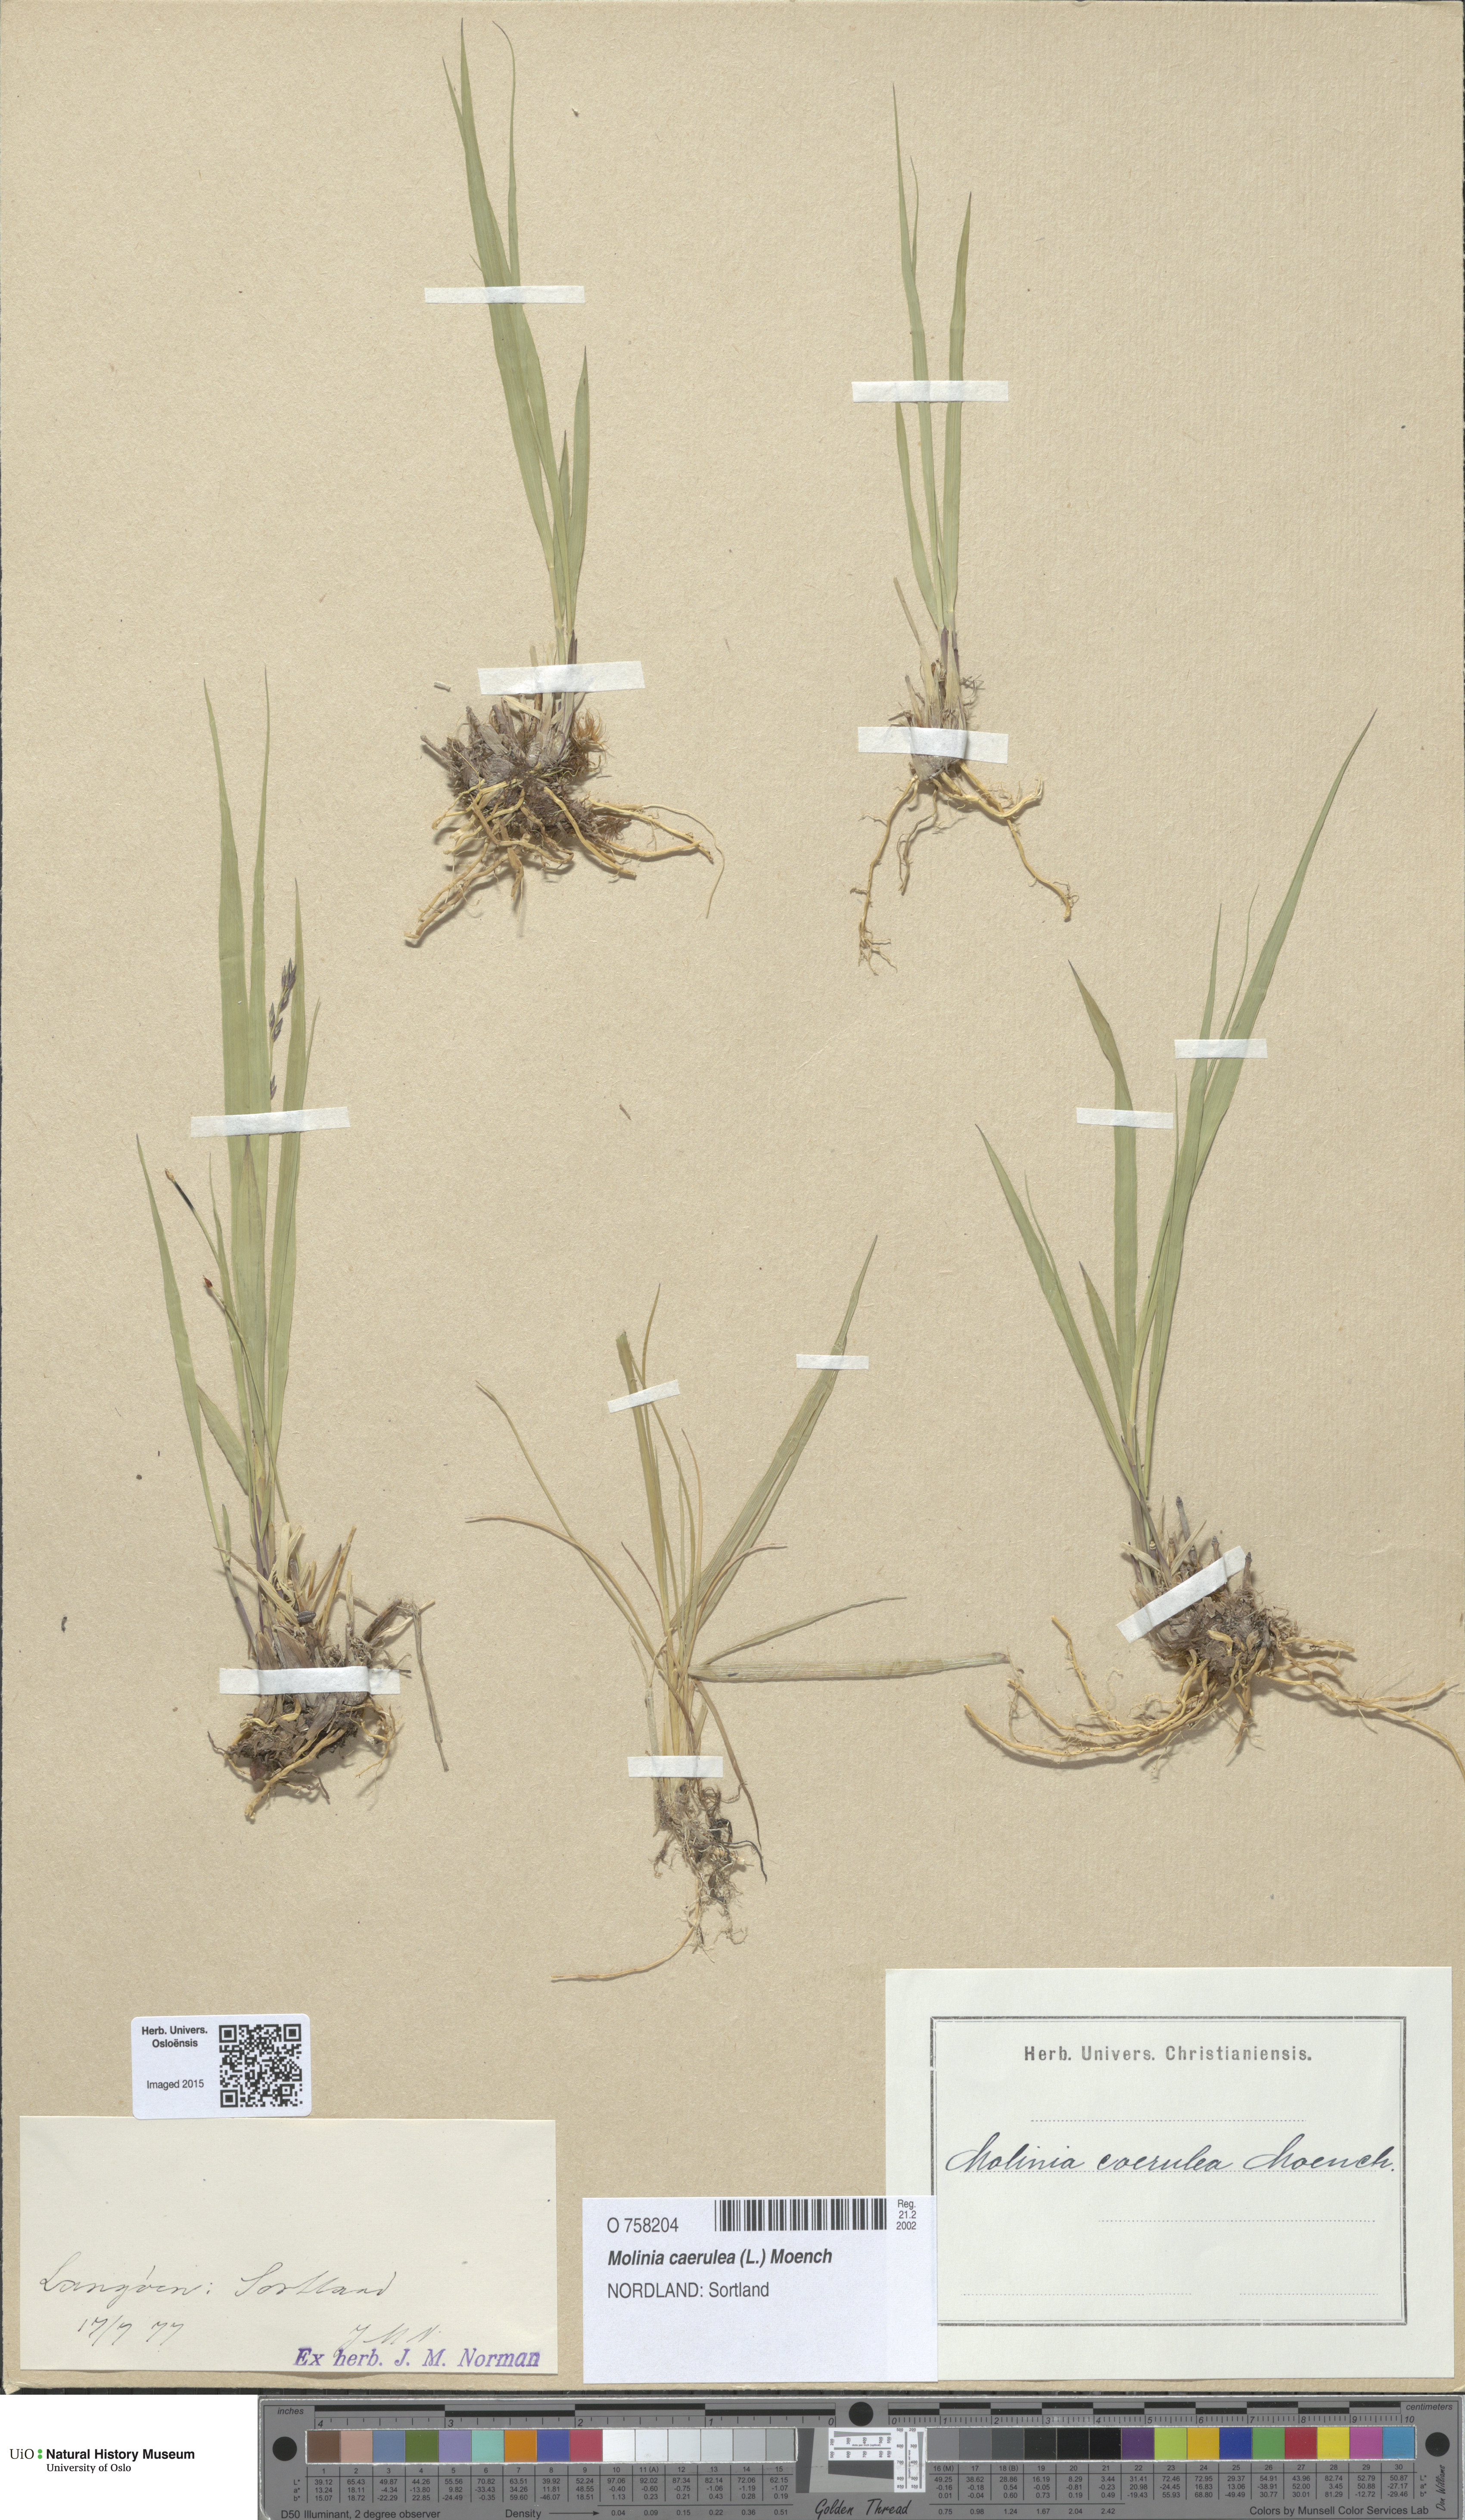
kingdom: Plantae
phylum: Tracheophyta
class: Liliopsida
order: Poales
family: Poaceae
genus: Molinia
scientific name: Molinia caerulea
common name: Purple moor-grass
